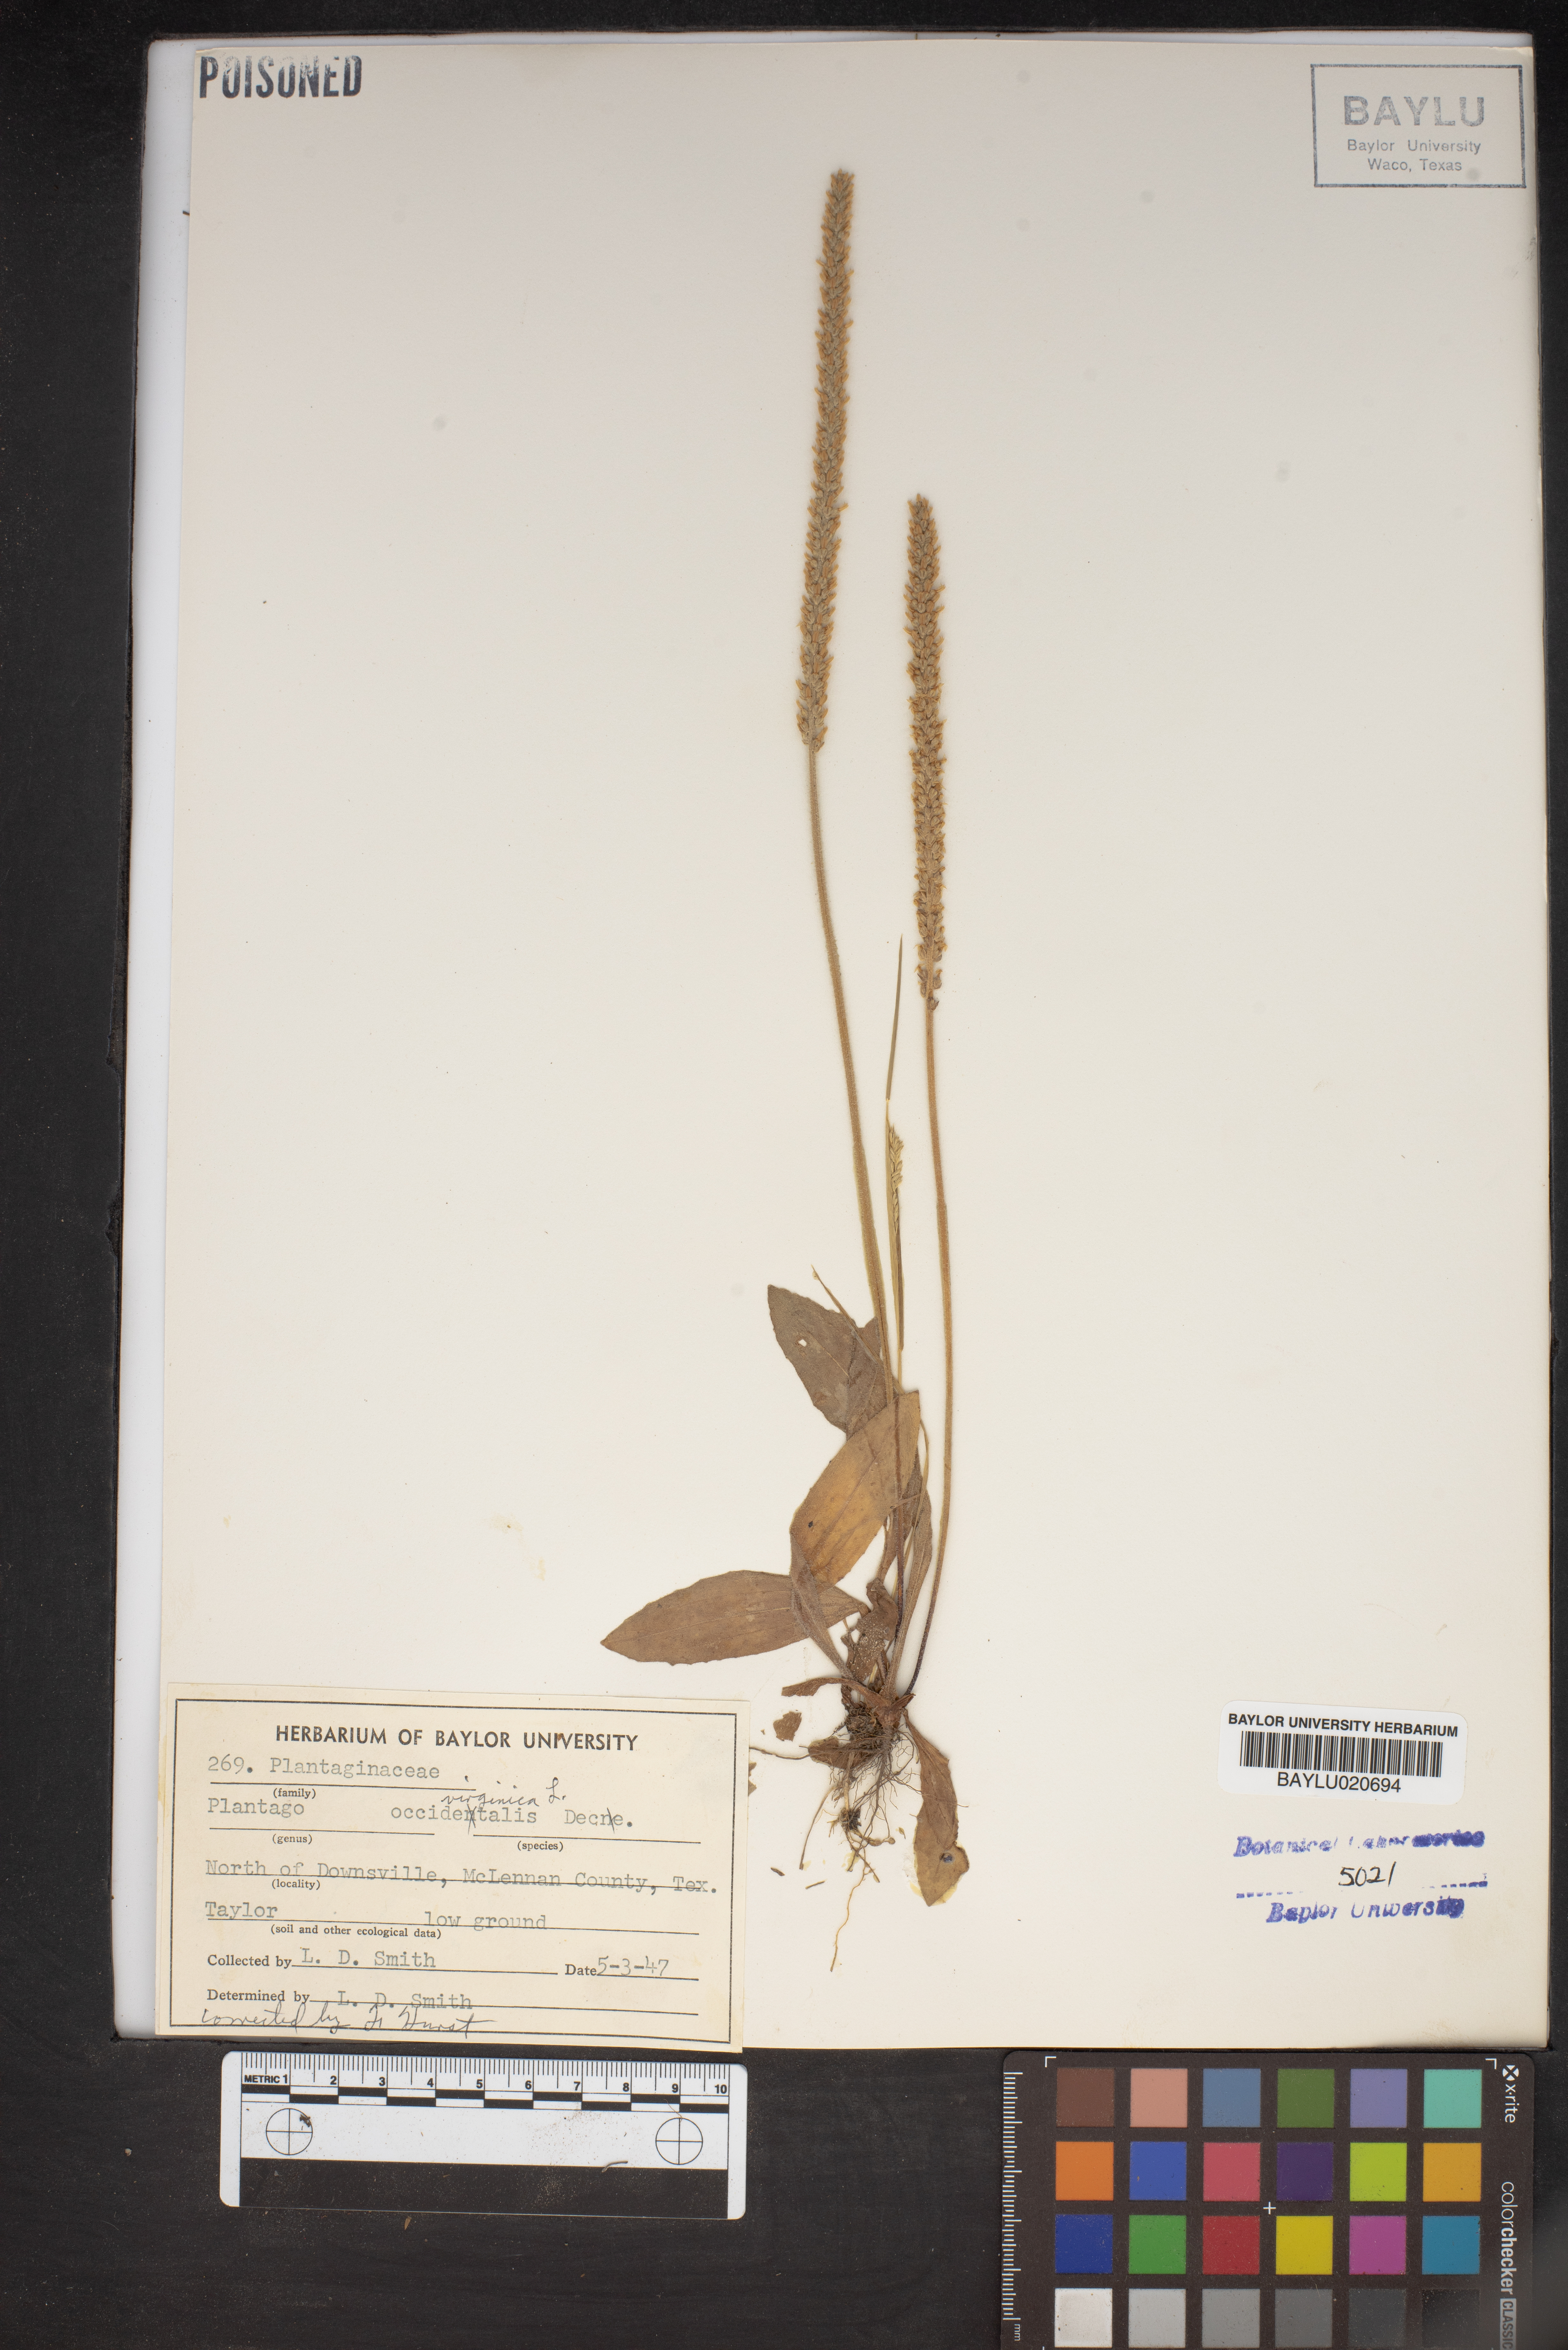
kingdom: Plantae
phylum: Tracheophyta
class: Magnoliopsida
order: Lamiales
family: Plantaginaceae
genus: Plantago
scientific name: Plantago virginica
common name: Hoary plantain
